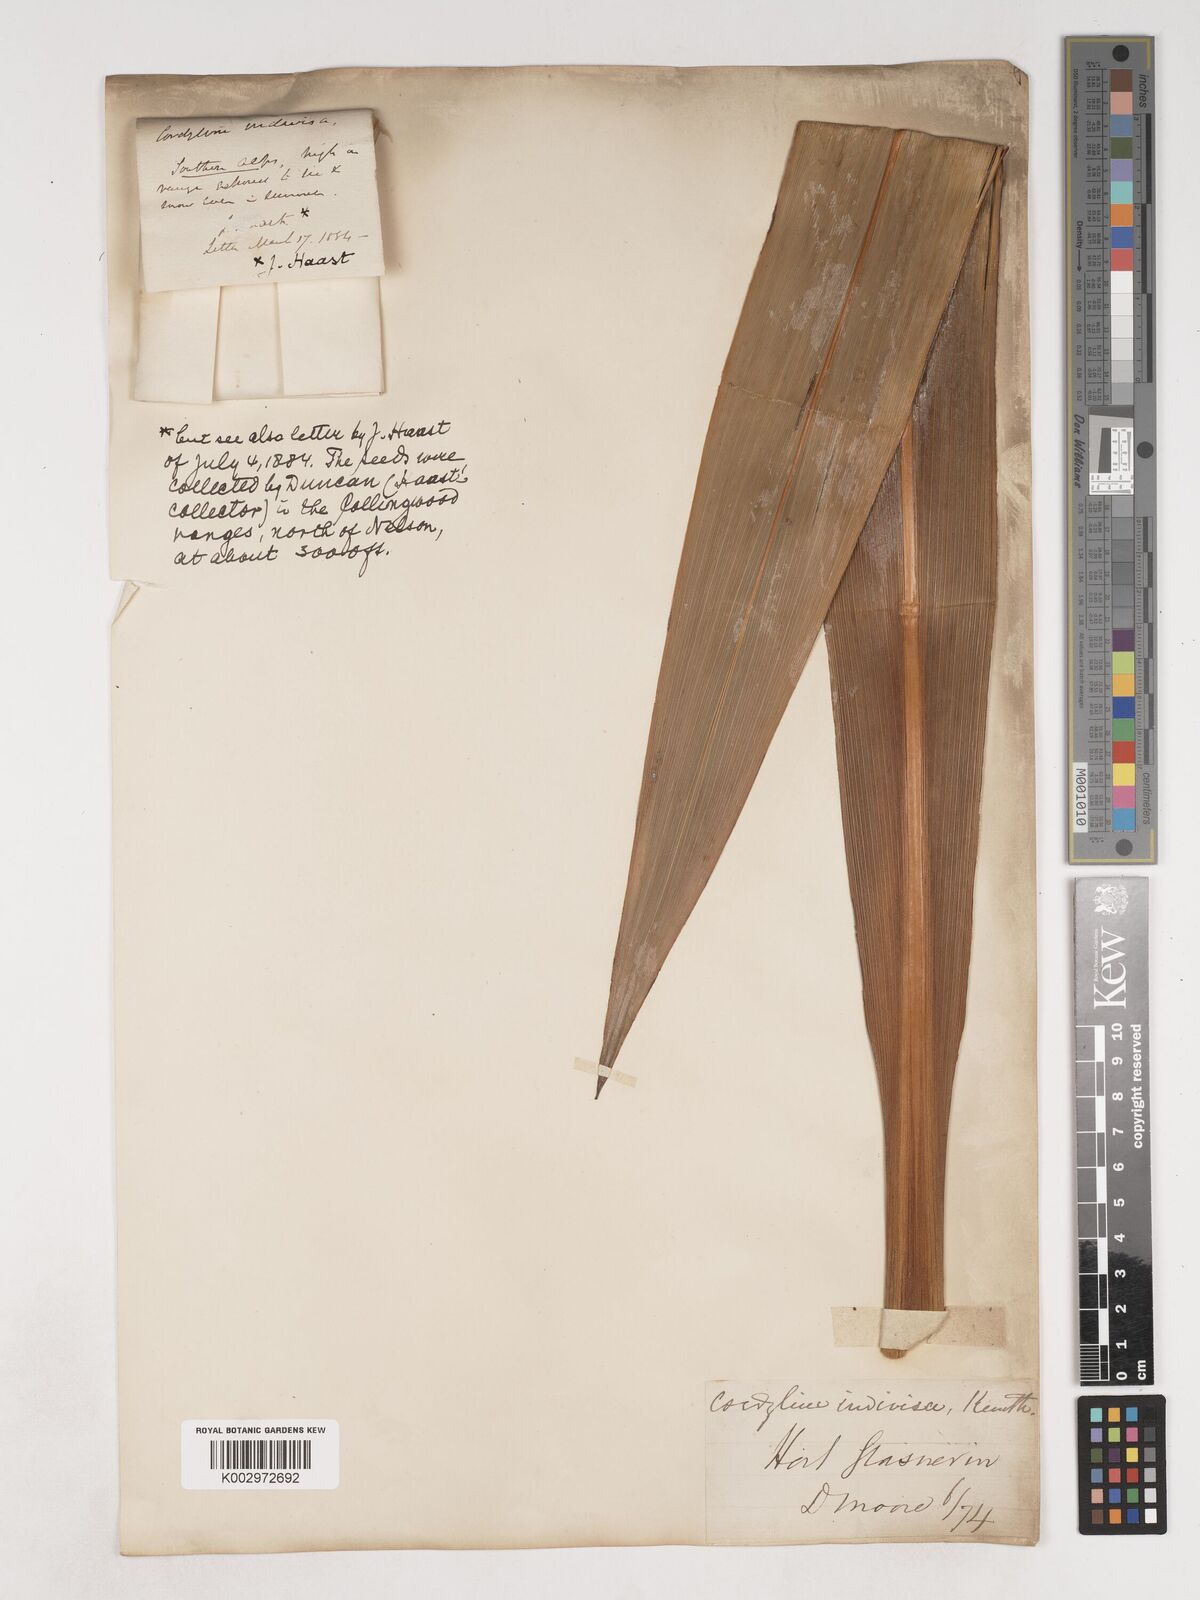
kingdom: Plantae
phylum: Tracheophyta
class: Liliopsida
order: Asparagales
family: Asparagaceae
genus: Cordyline
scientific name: Cordyline
